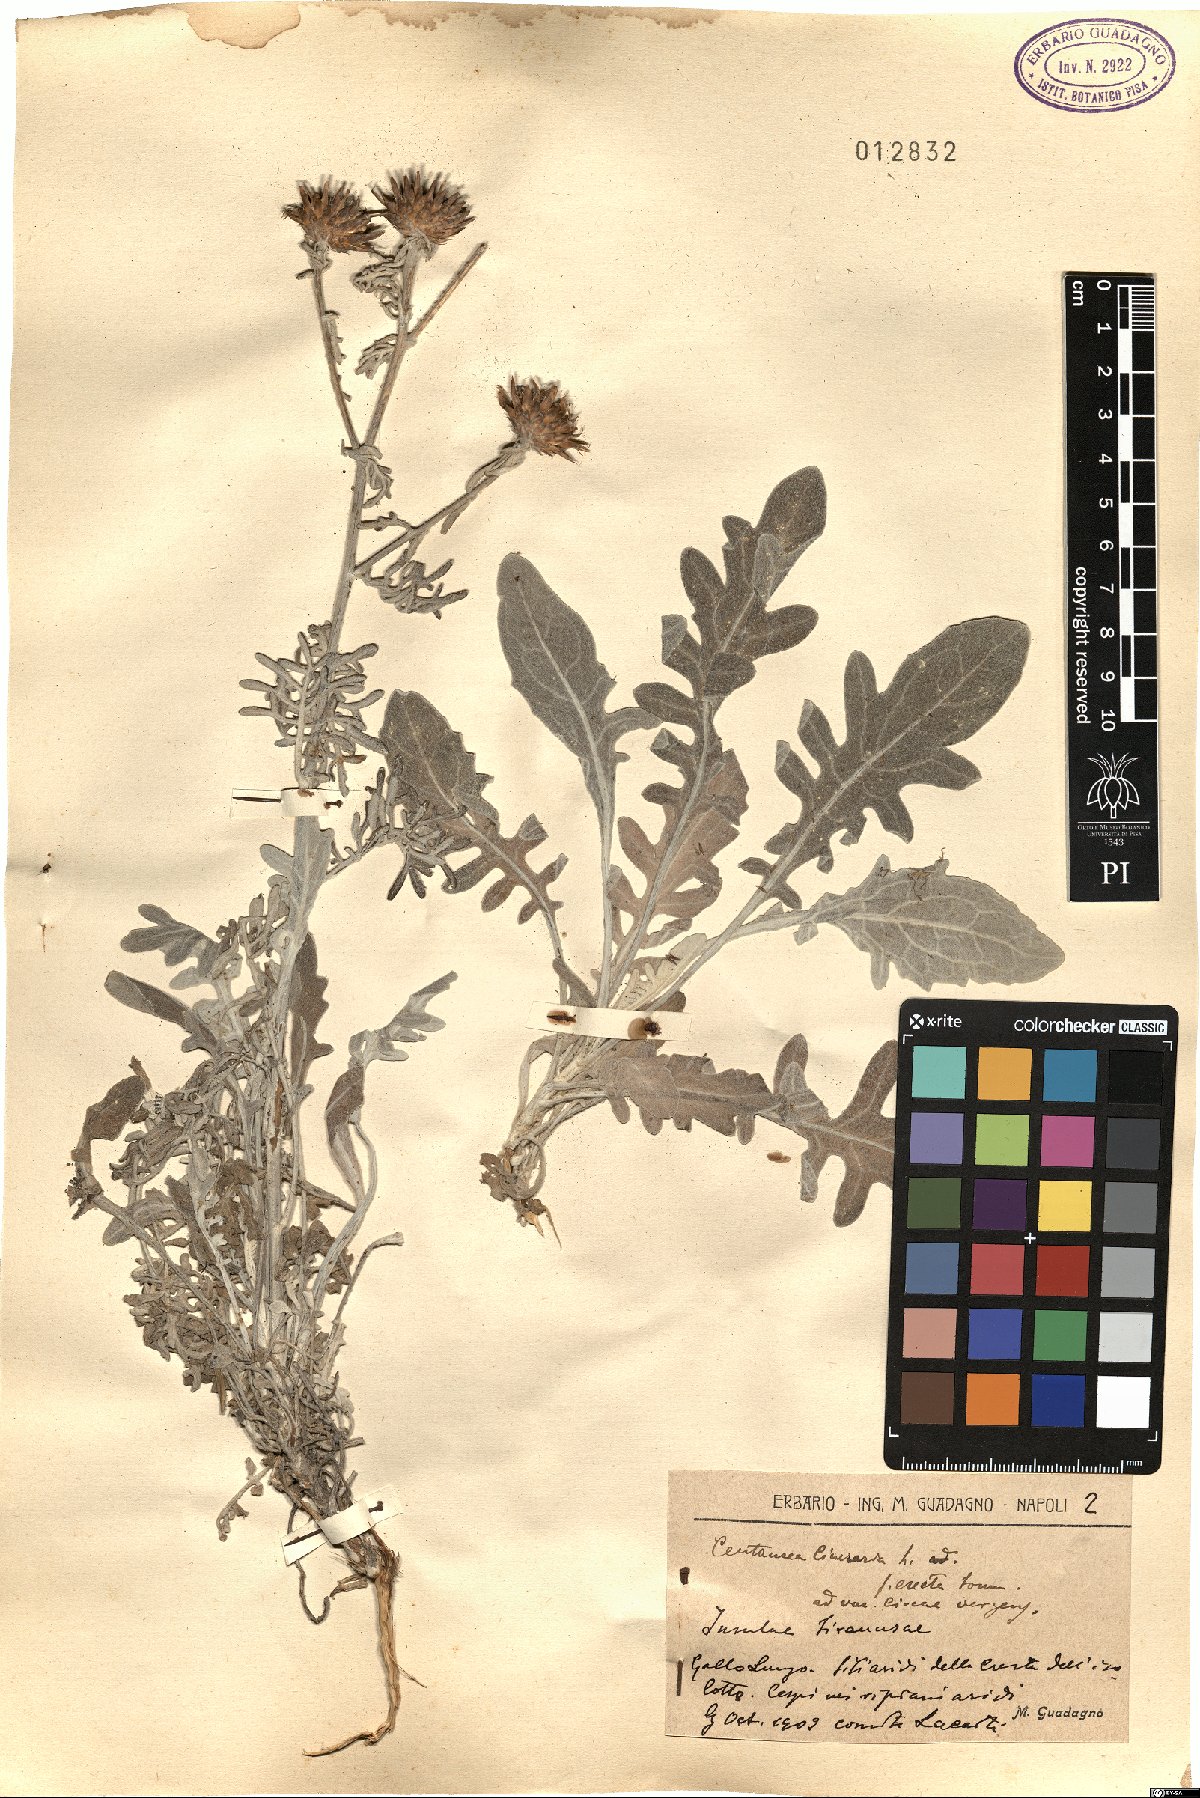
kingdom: Plantae
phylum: Tracheophyta
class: Magnoliopsida
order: Asterales
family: Asteraceae
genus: Centaurea
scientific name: Centaurea cineraria
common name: Dusty miller
